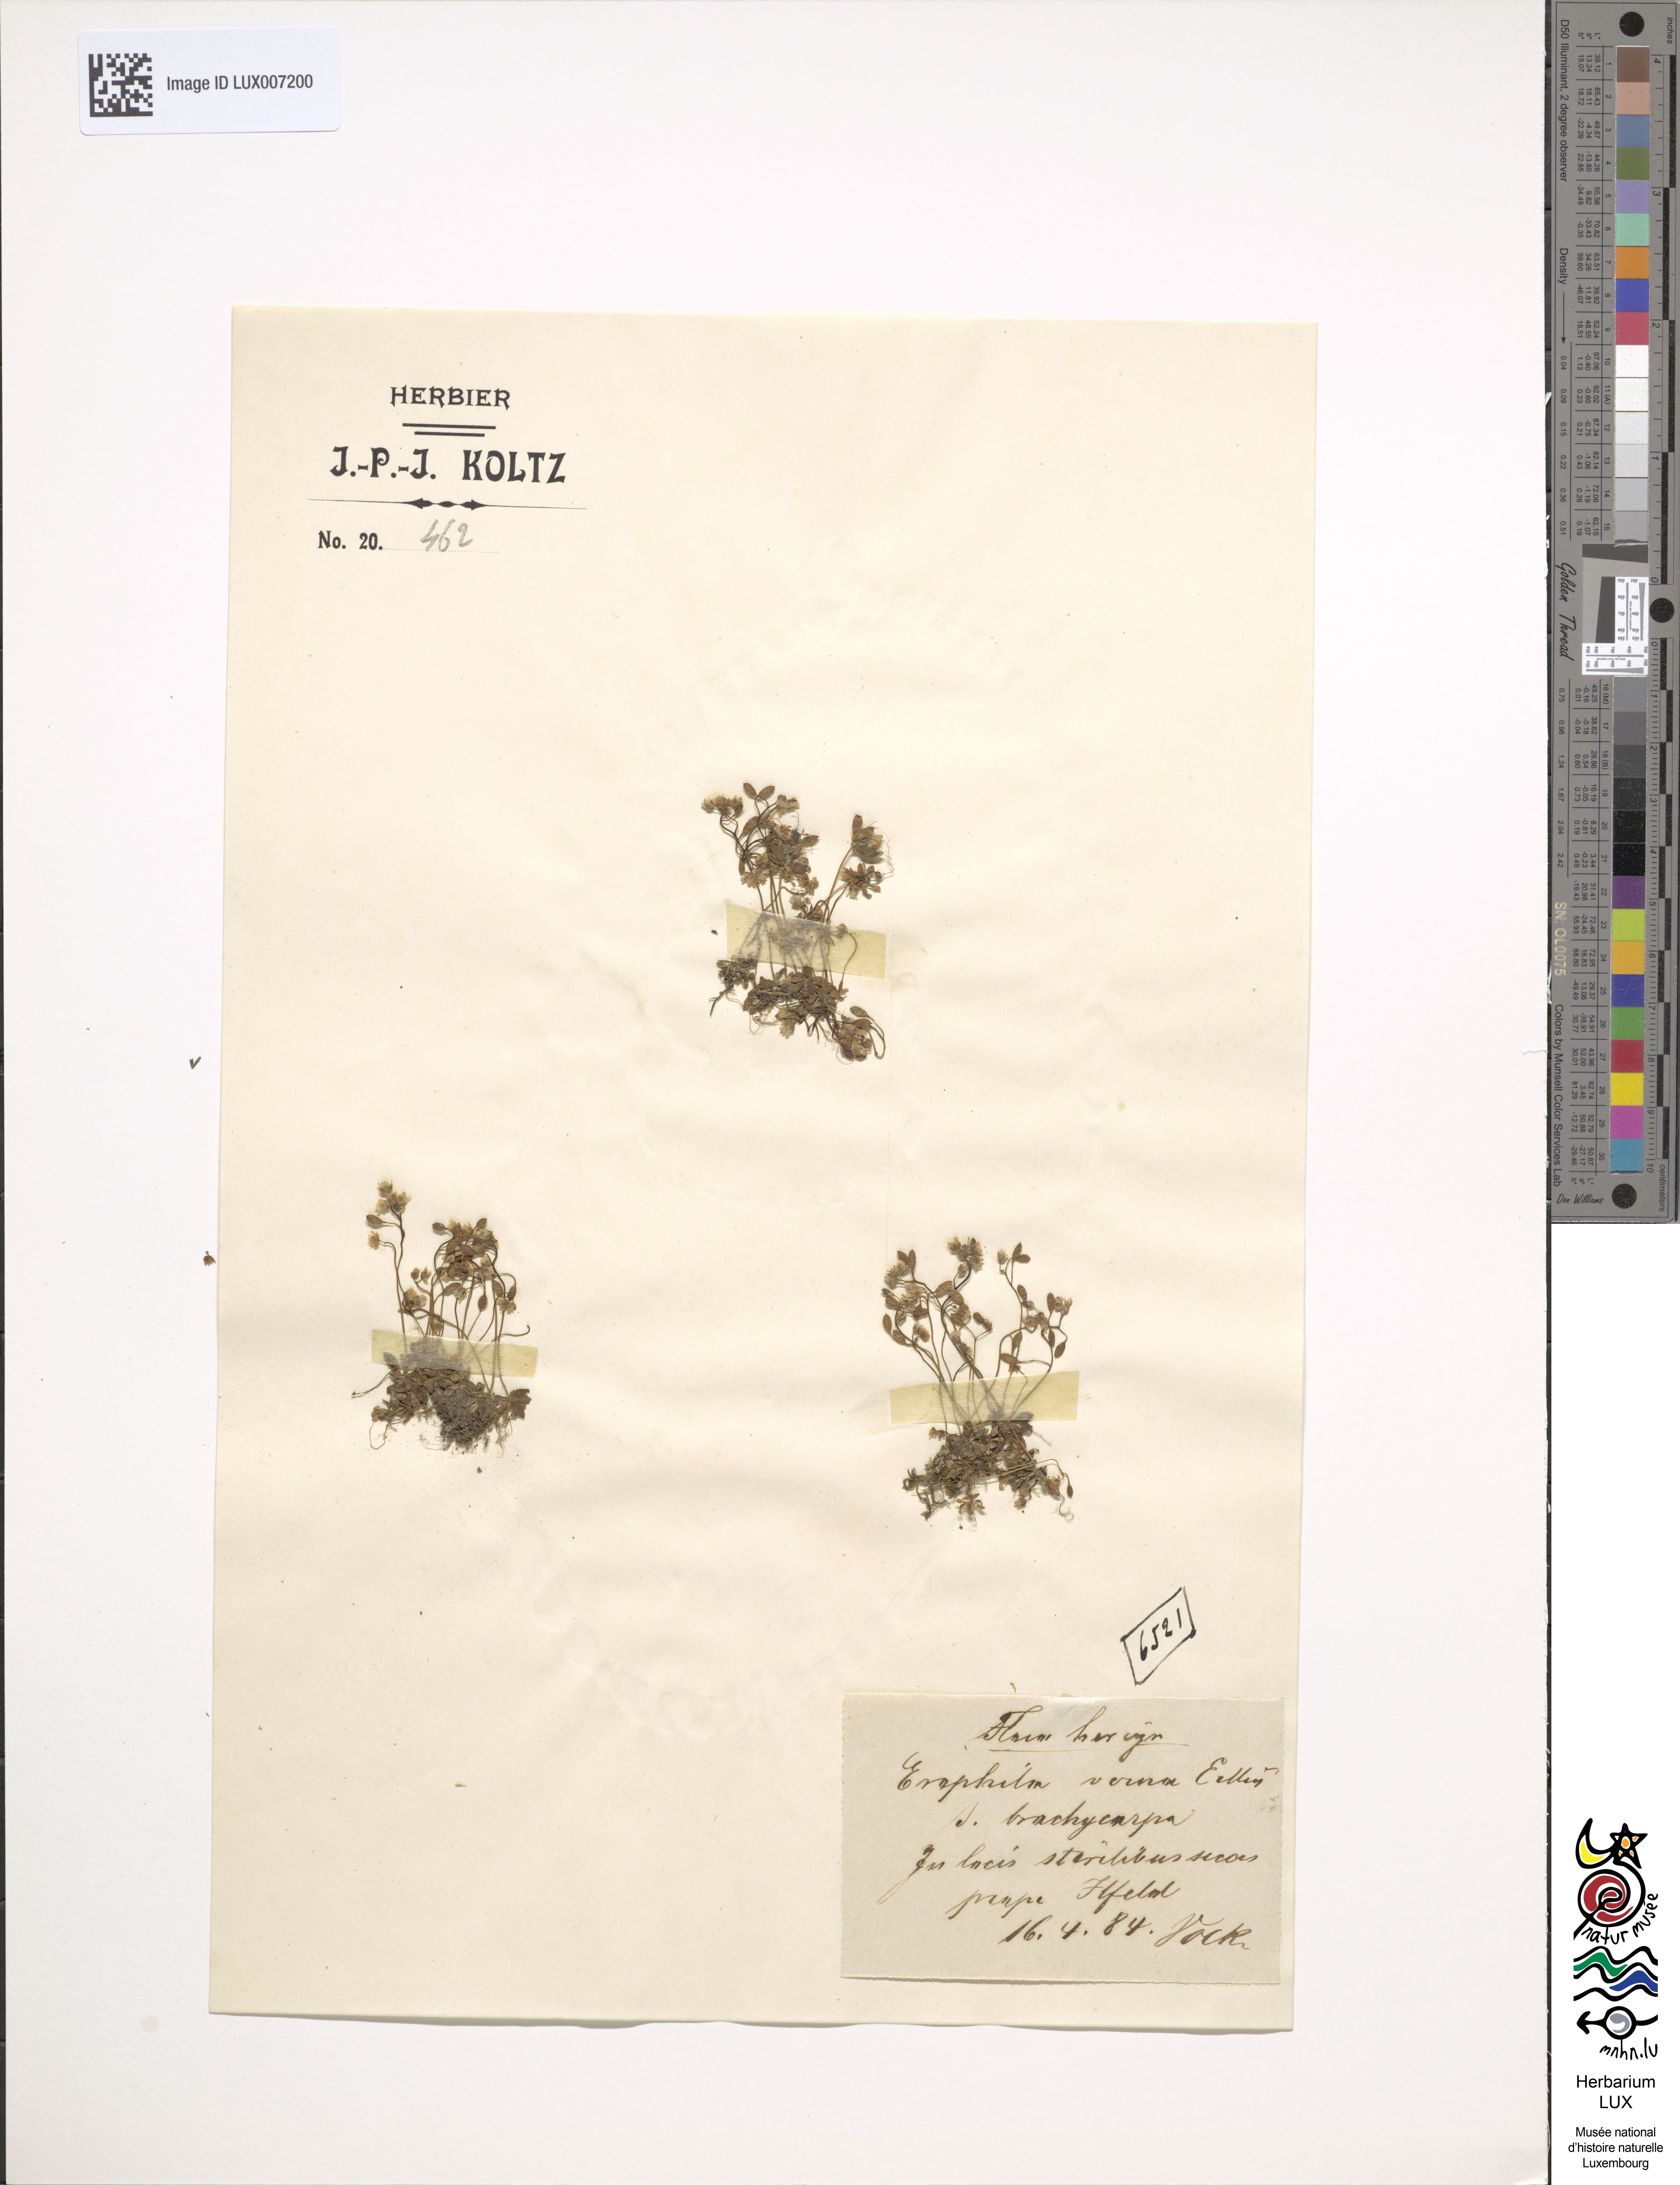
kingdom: Plantae
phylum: Tracheophyta
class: Magnoliopsida
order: Brassicales
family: Brassicaceae
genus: Draba
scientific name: Draba verna
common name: Spring draba
